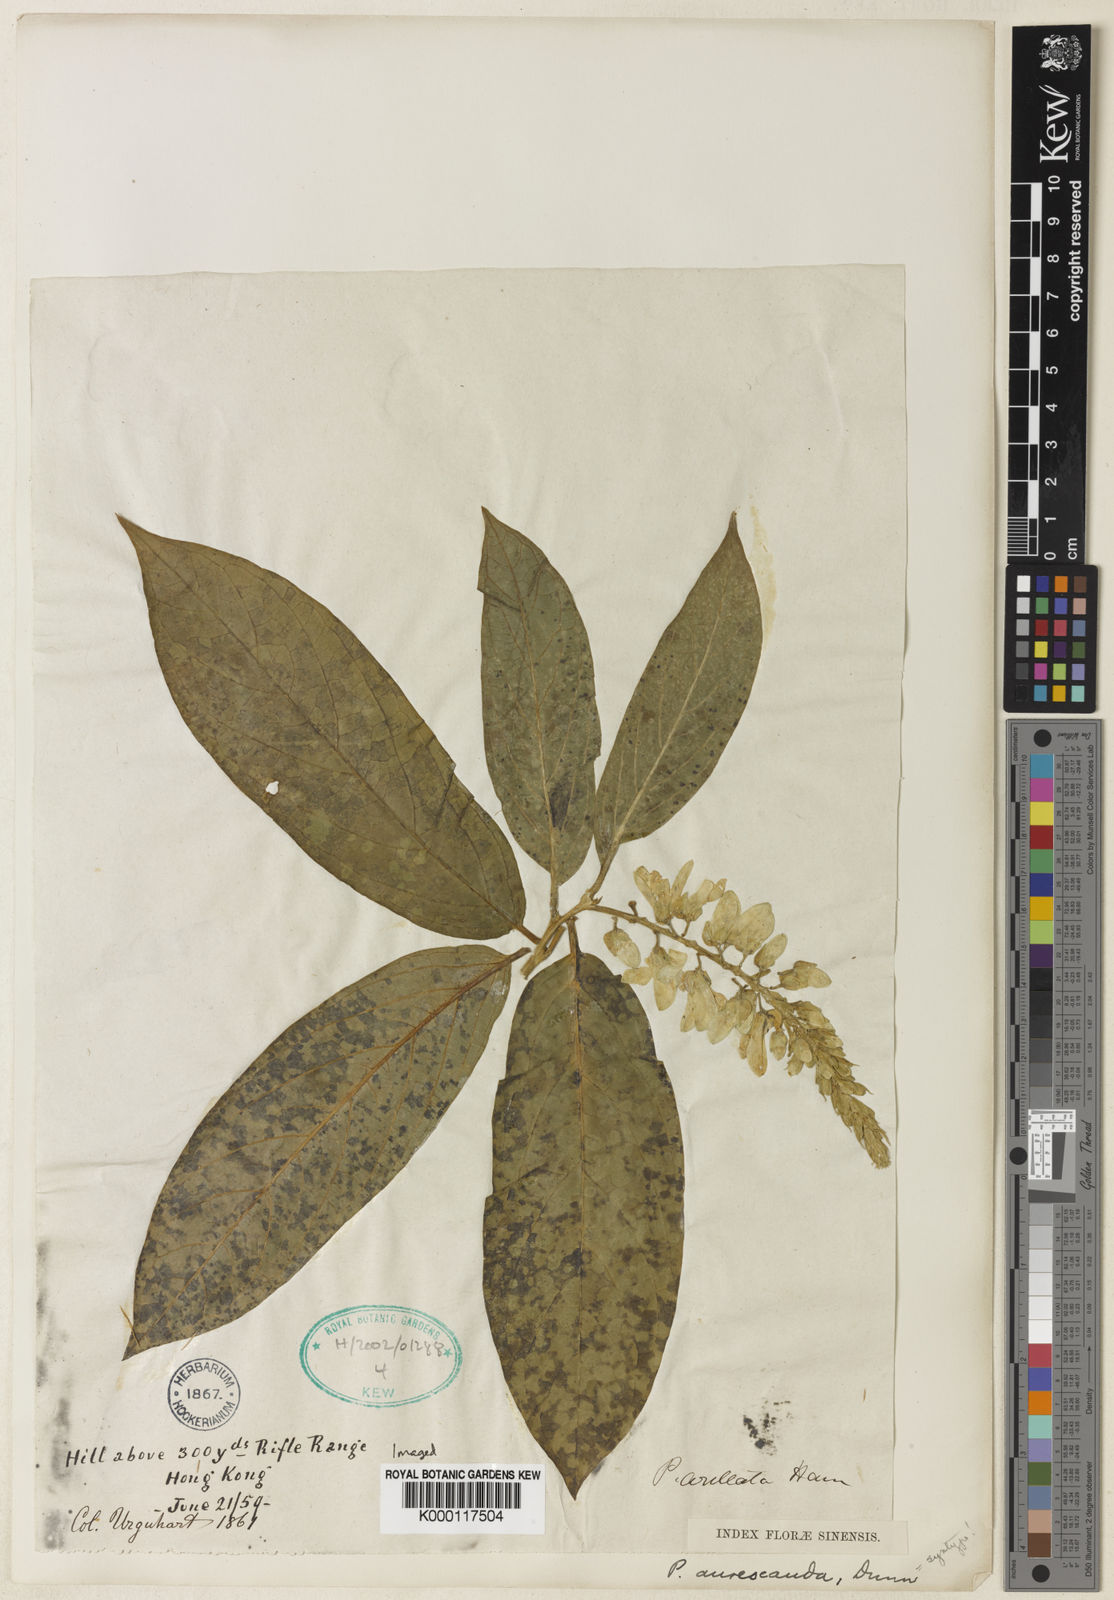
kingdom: Plantae
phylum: Tracheophyta
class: Magnoliopsida
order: Fabales
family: Polygalaceae
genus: Polygala
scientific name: Polygala forbesii
